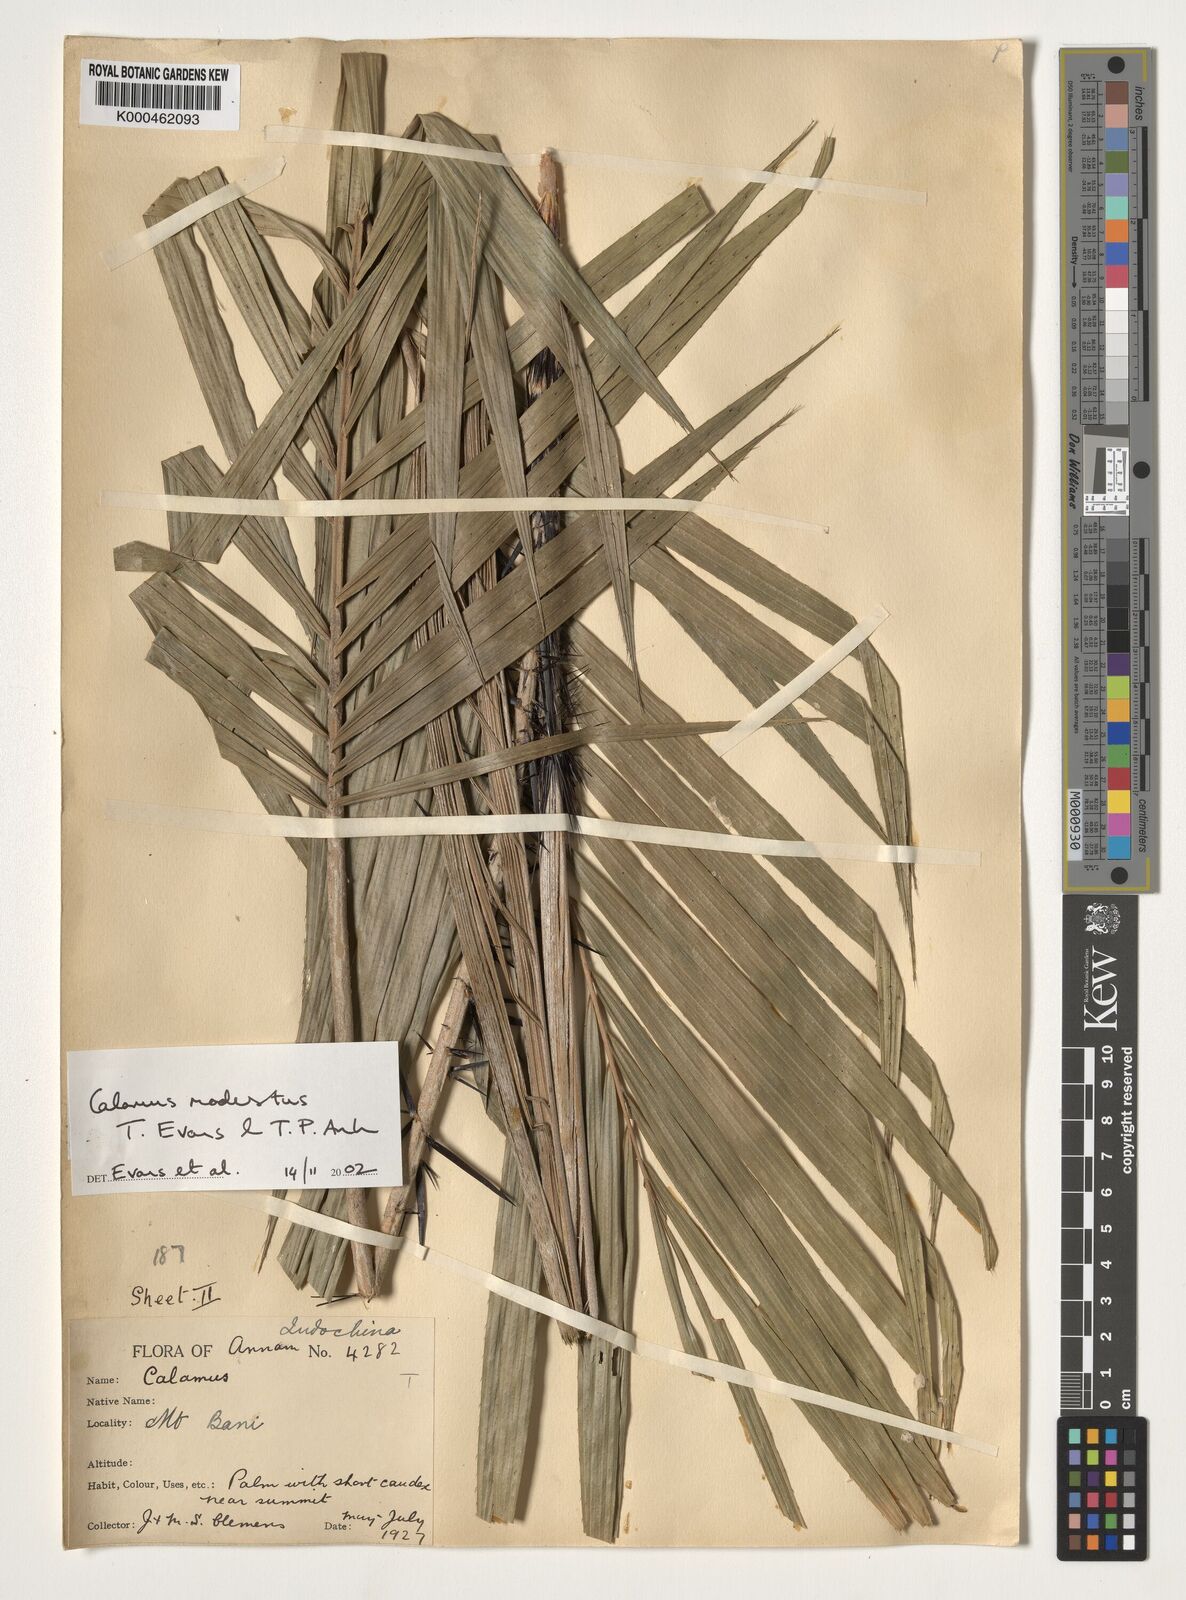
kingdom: Plantae
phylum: Tracheophyta
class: Liliopsida
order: Arecales
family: Arecaceae
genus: Calamus
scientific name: Calamus modestus
